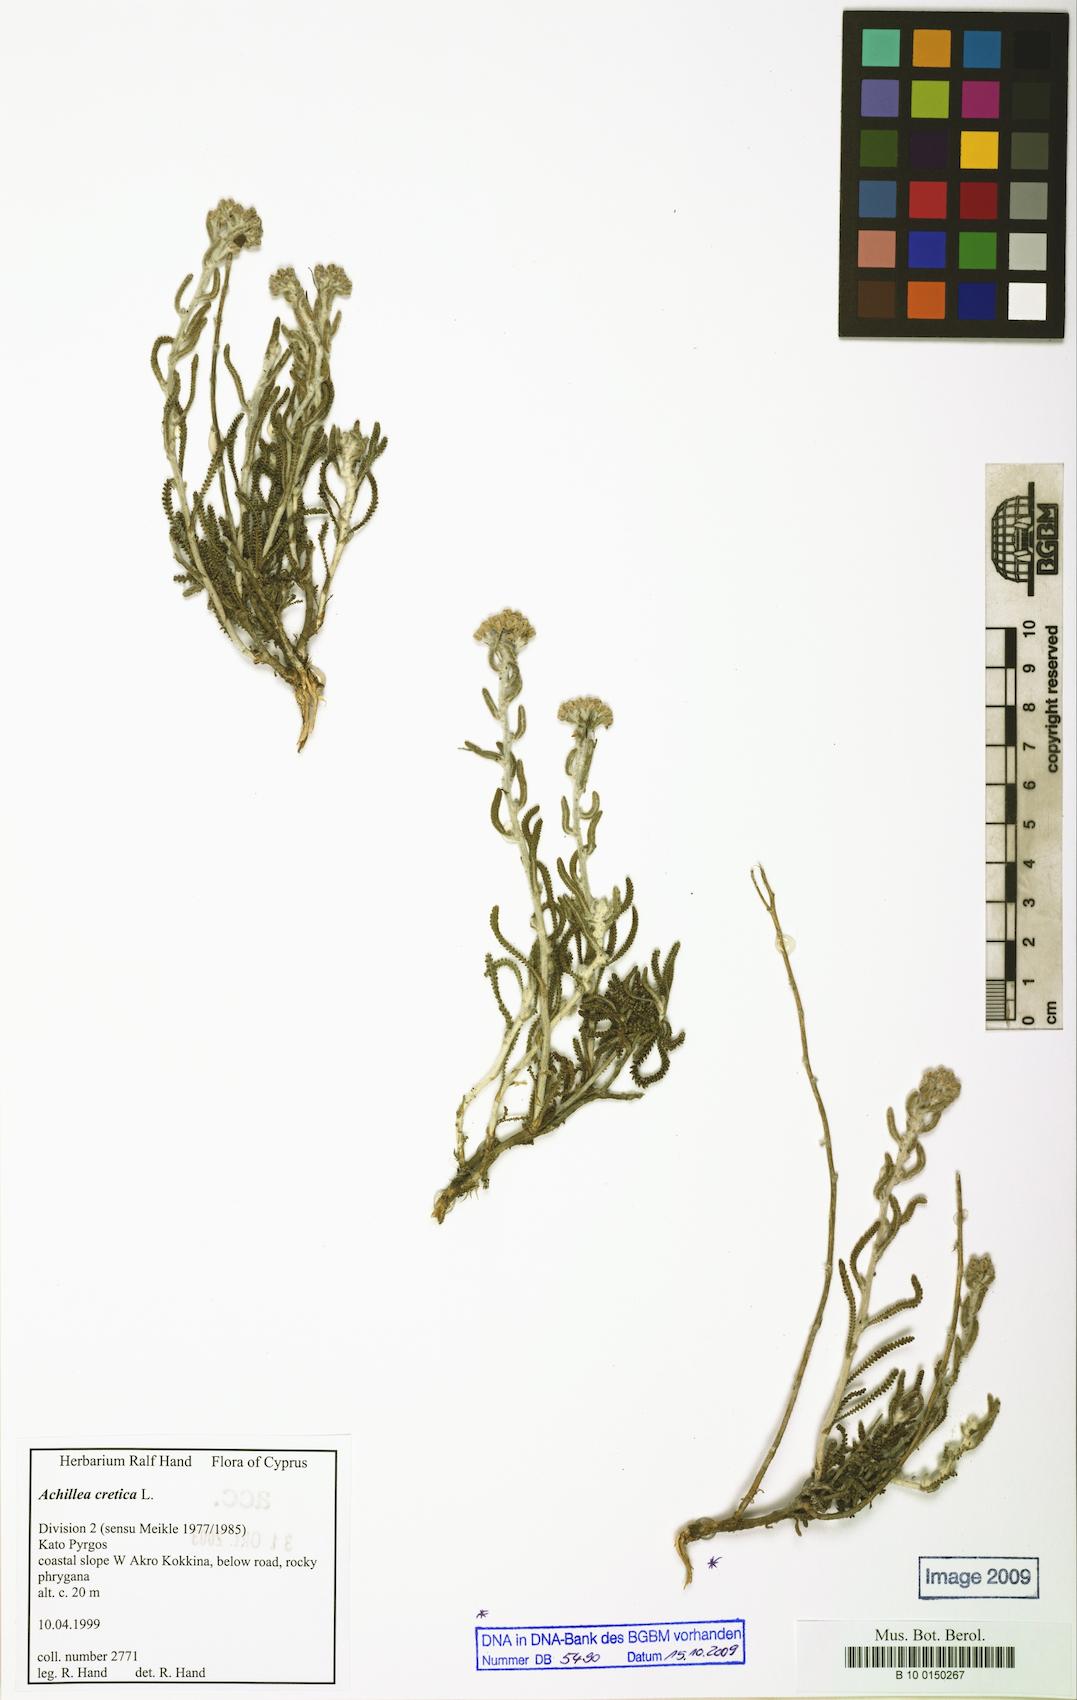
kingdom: Plantae
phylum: Tracheophyta
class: Magnoliopsida
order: Asterales
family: Asteraceae
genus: Achillea
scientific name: Achillea cretica
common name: Chamomile-leaved lavender-cotton
